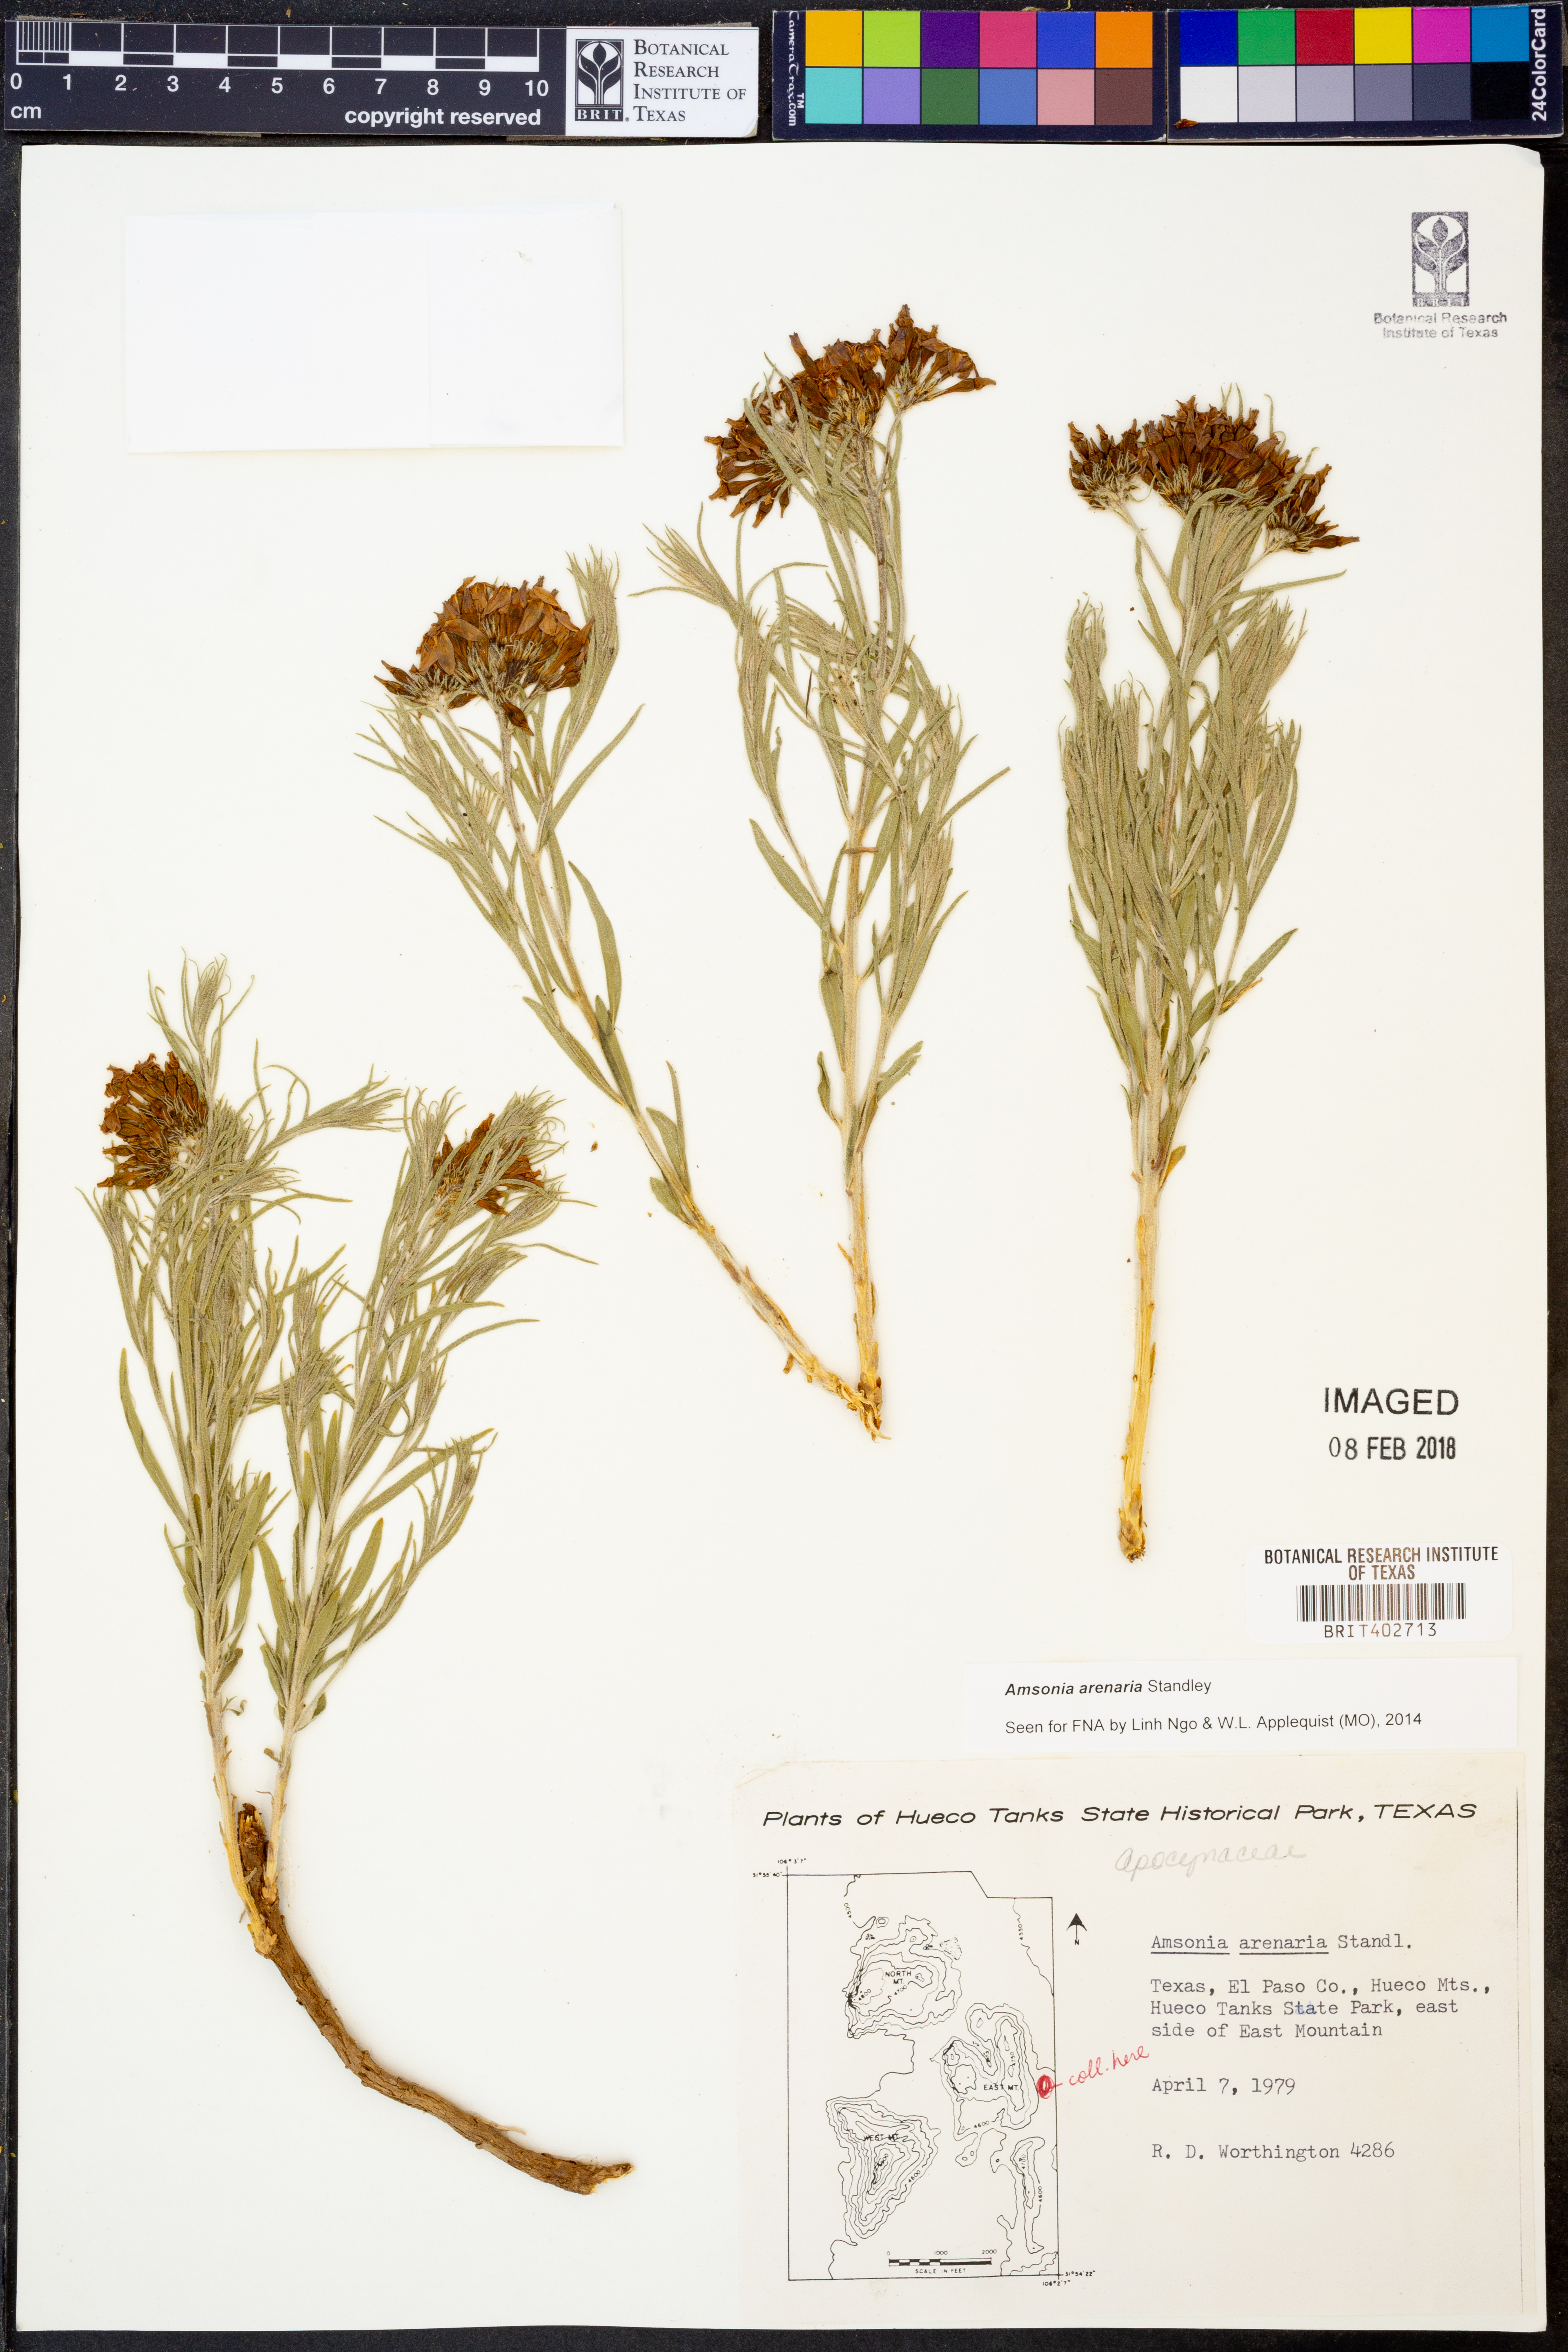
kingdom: Plantae
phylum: Tracheophyta
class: Magnoliopsida
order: Gentianales
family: Apocynaceae
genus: Amsonia
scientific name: Amsonia tomentosa
